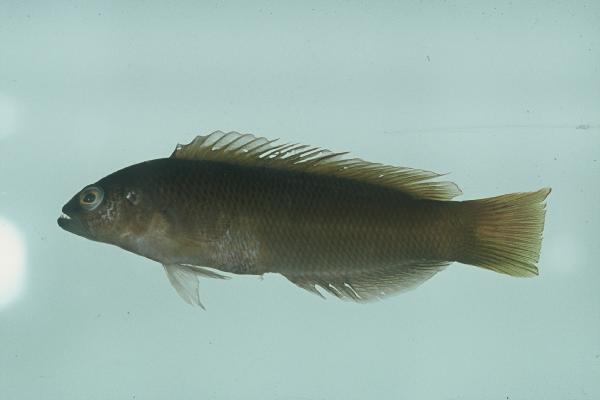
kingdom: Animalia
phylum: Chordata
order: Perciformes
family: Pseudochromidae
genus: Pseudochromis
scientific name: Pseudochromis natalensis
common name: Natal dottyback
